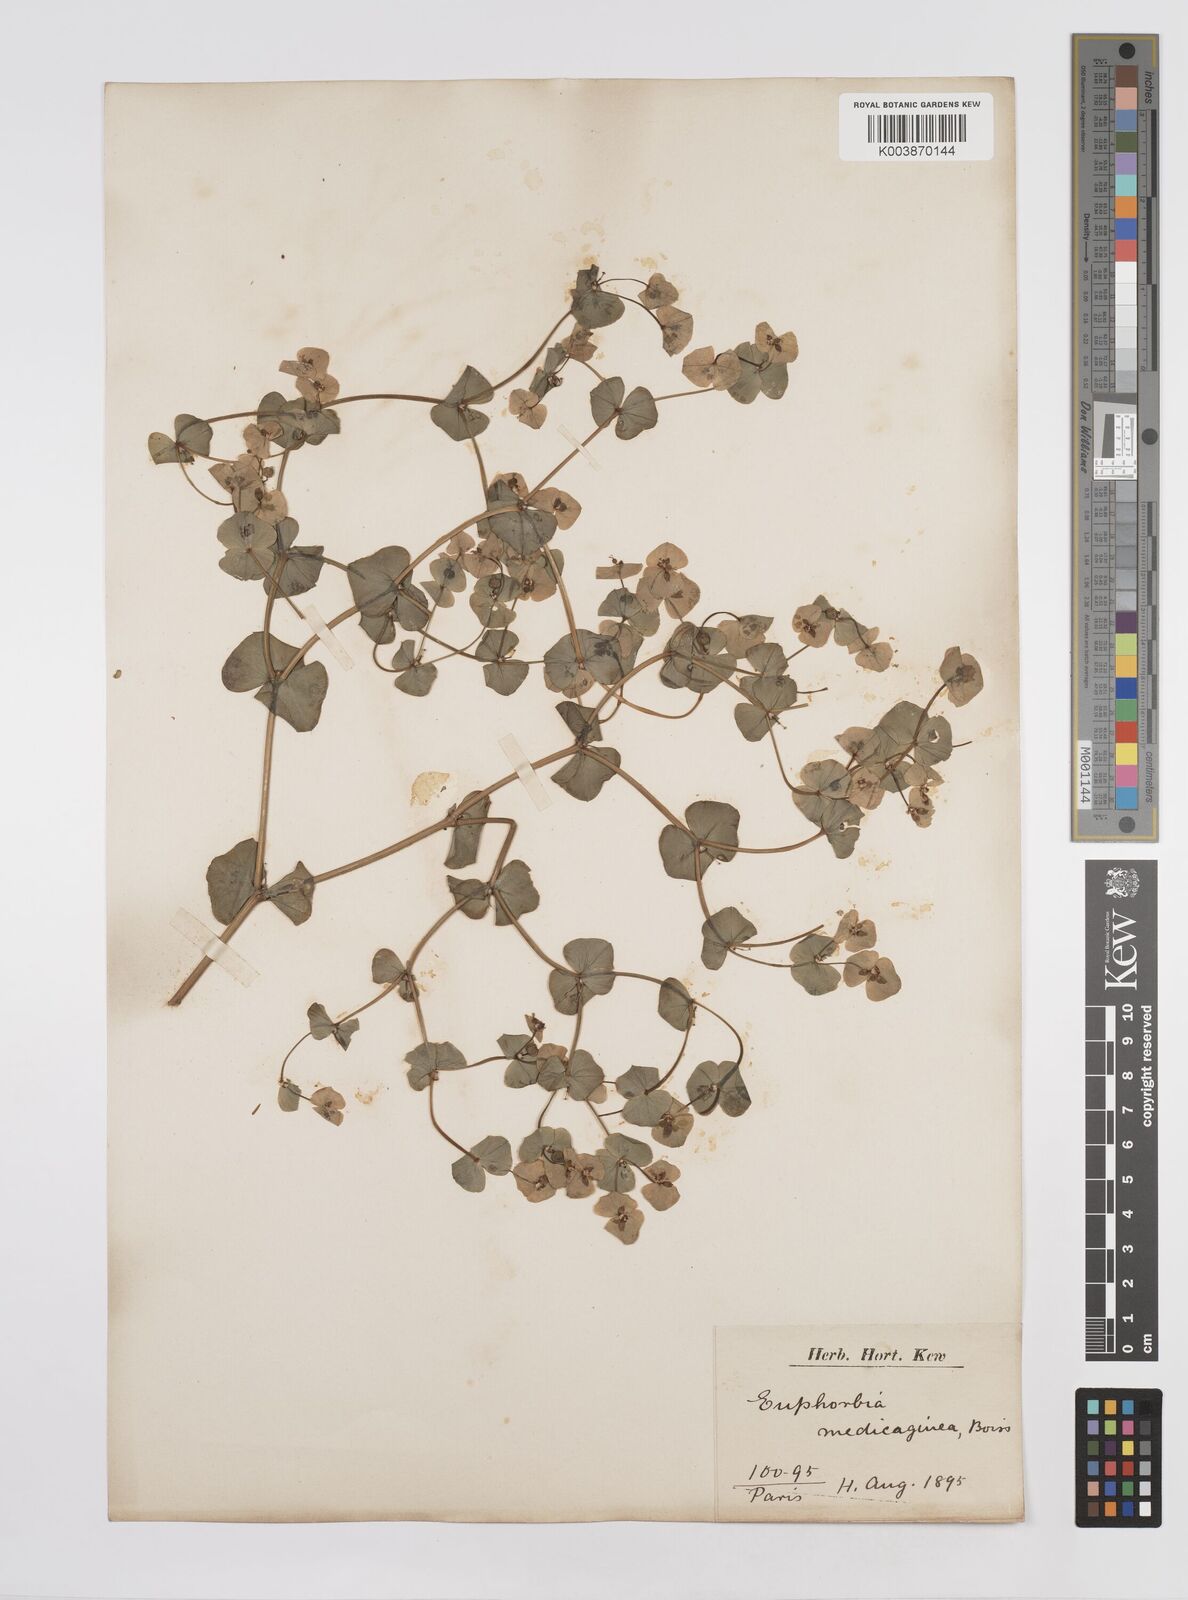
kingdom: Plantae
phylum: Tracheophyta
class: Magnoliopsida
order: Malpighiales
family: Euphorbiaceae
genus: Euphorbia
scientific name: Euphorbia medicaginea
